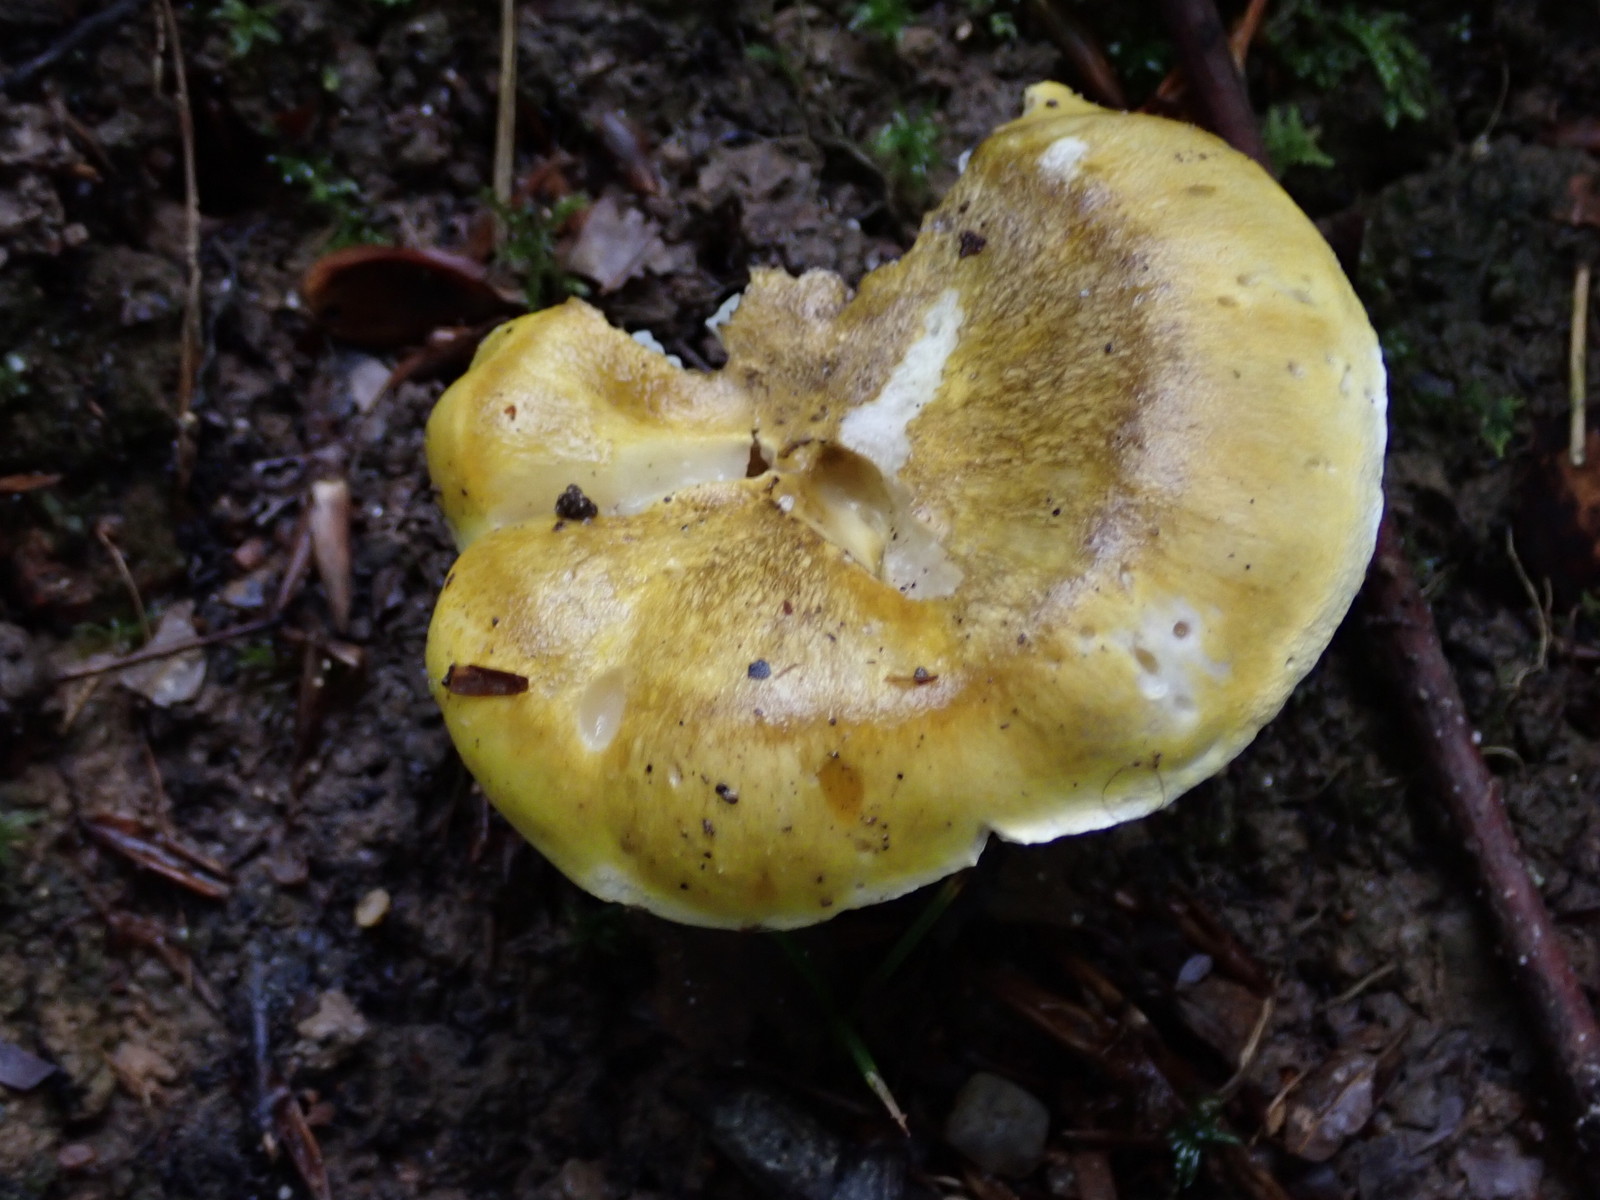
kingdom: Fungi
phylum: Basidiomycota
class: Agaricomycetes
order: Agaricales
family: Tricholomataceae
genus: Tricholoma
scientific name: Tricholoma sejunctum
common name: grøngul ridderhat
